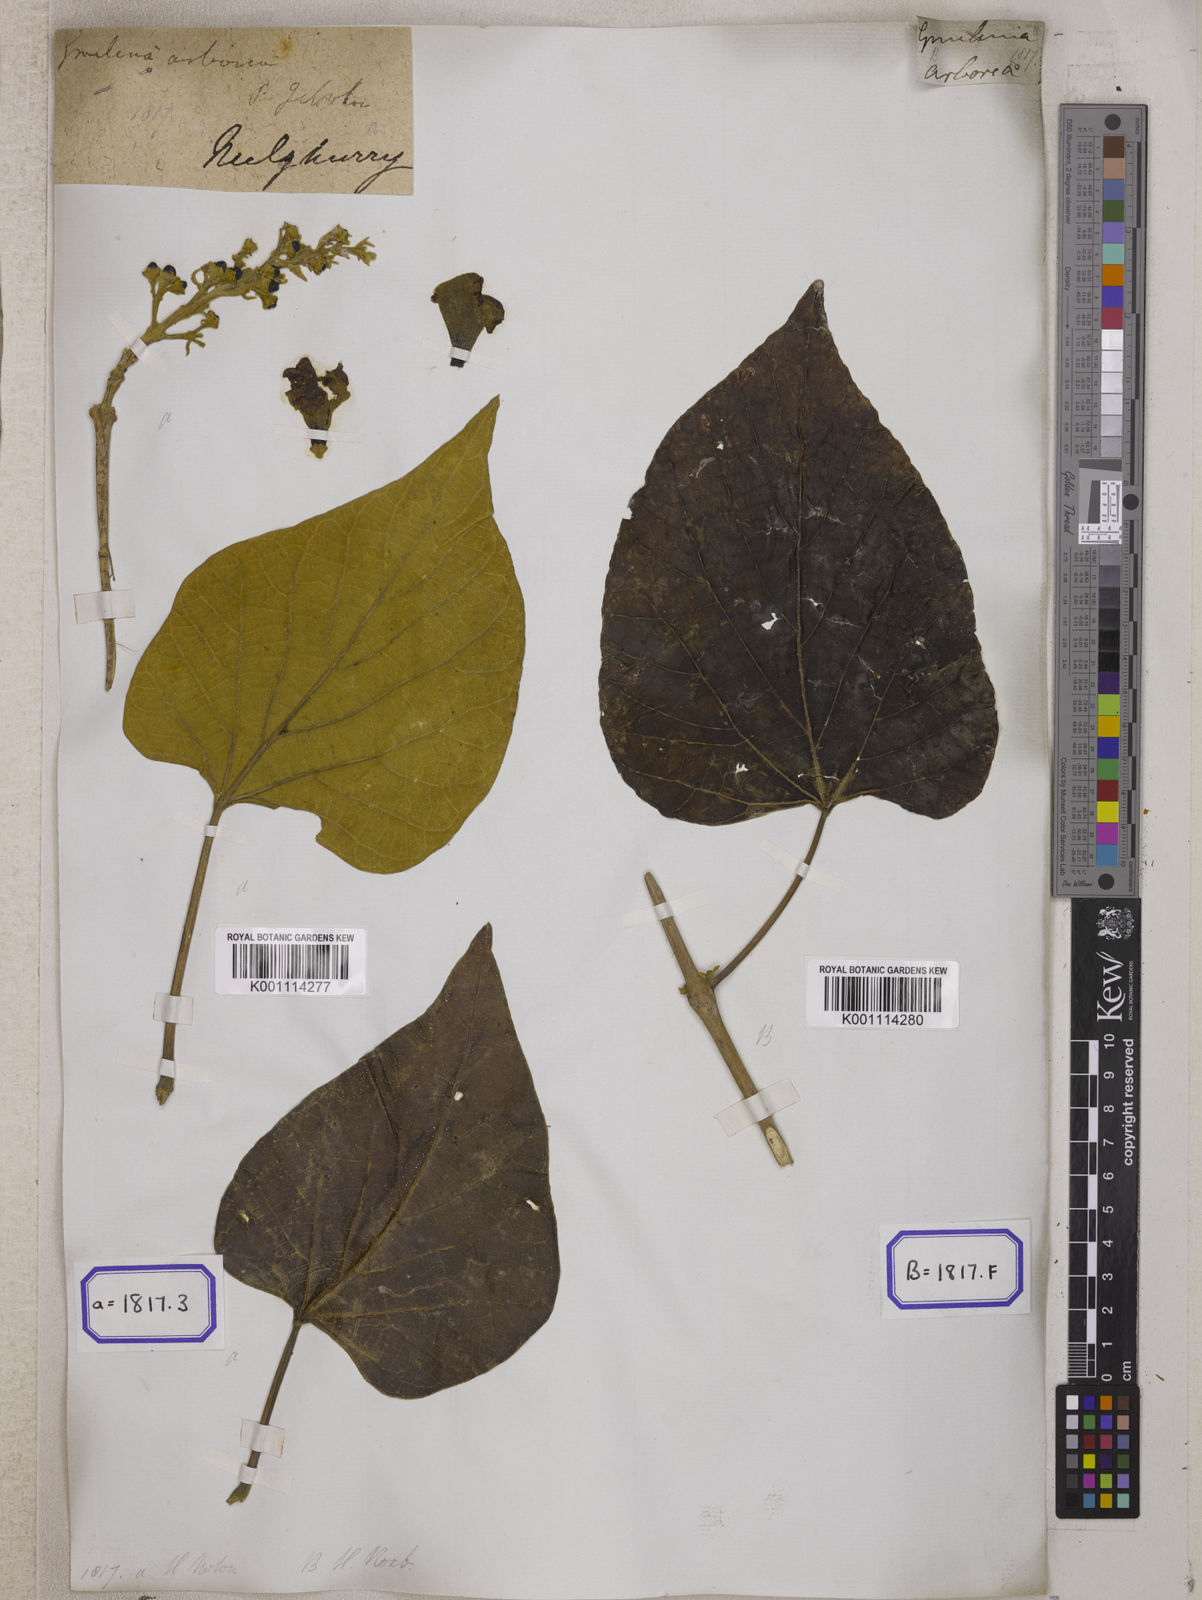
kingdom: Plantae
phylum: Tracheophyta
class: Magnoliopsida
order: Lamiales
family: Lamiaceae
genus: Gmelina
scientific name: Gmelina
